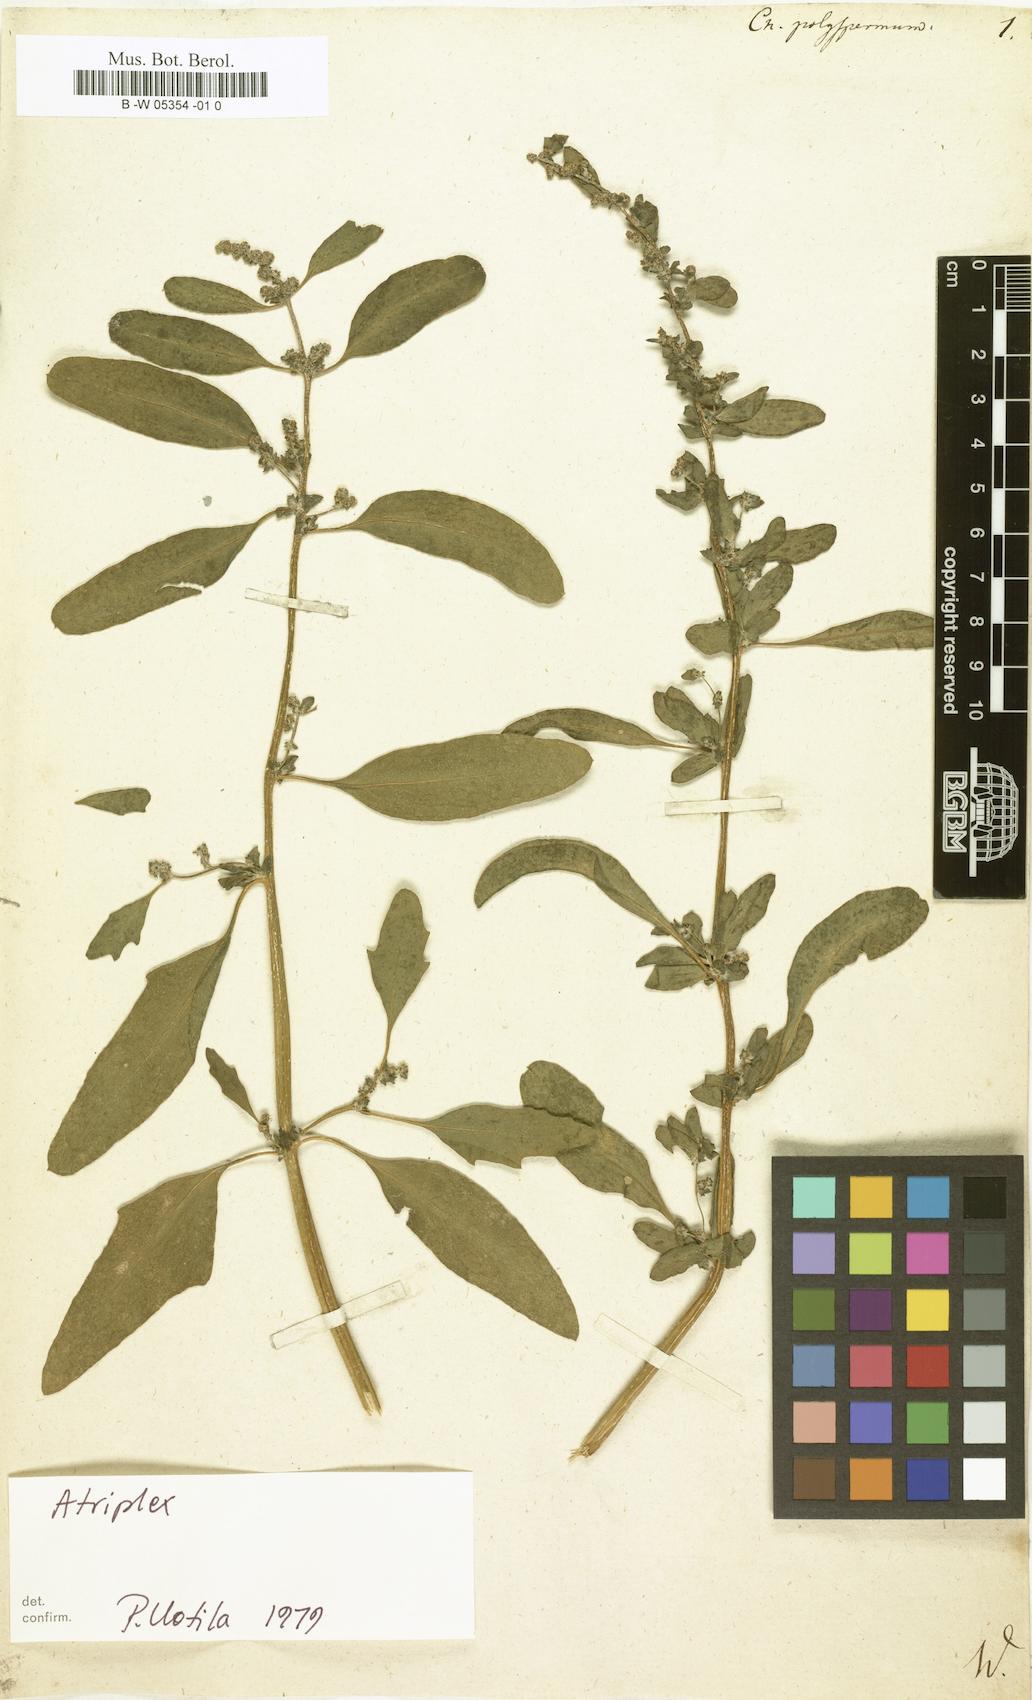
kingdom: Plantae
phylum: Tracheophyta
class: Magnoliopsida
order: Caryophyllales
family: Amaranthaceae
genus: Lipandra
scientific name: Lipandra polysperma
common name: Many-seed goosefoot
